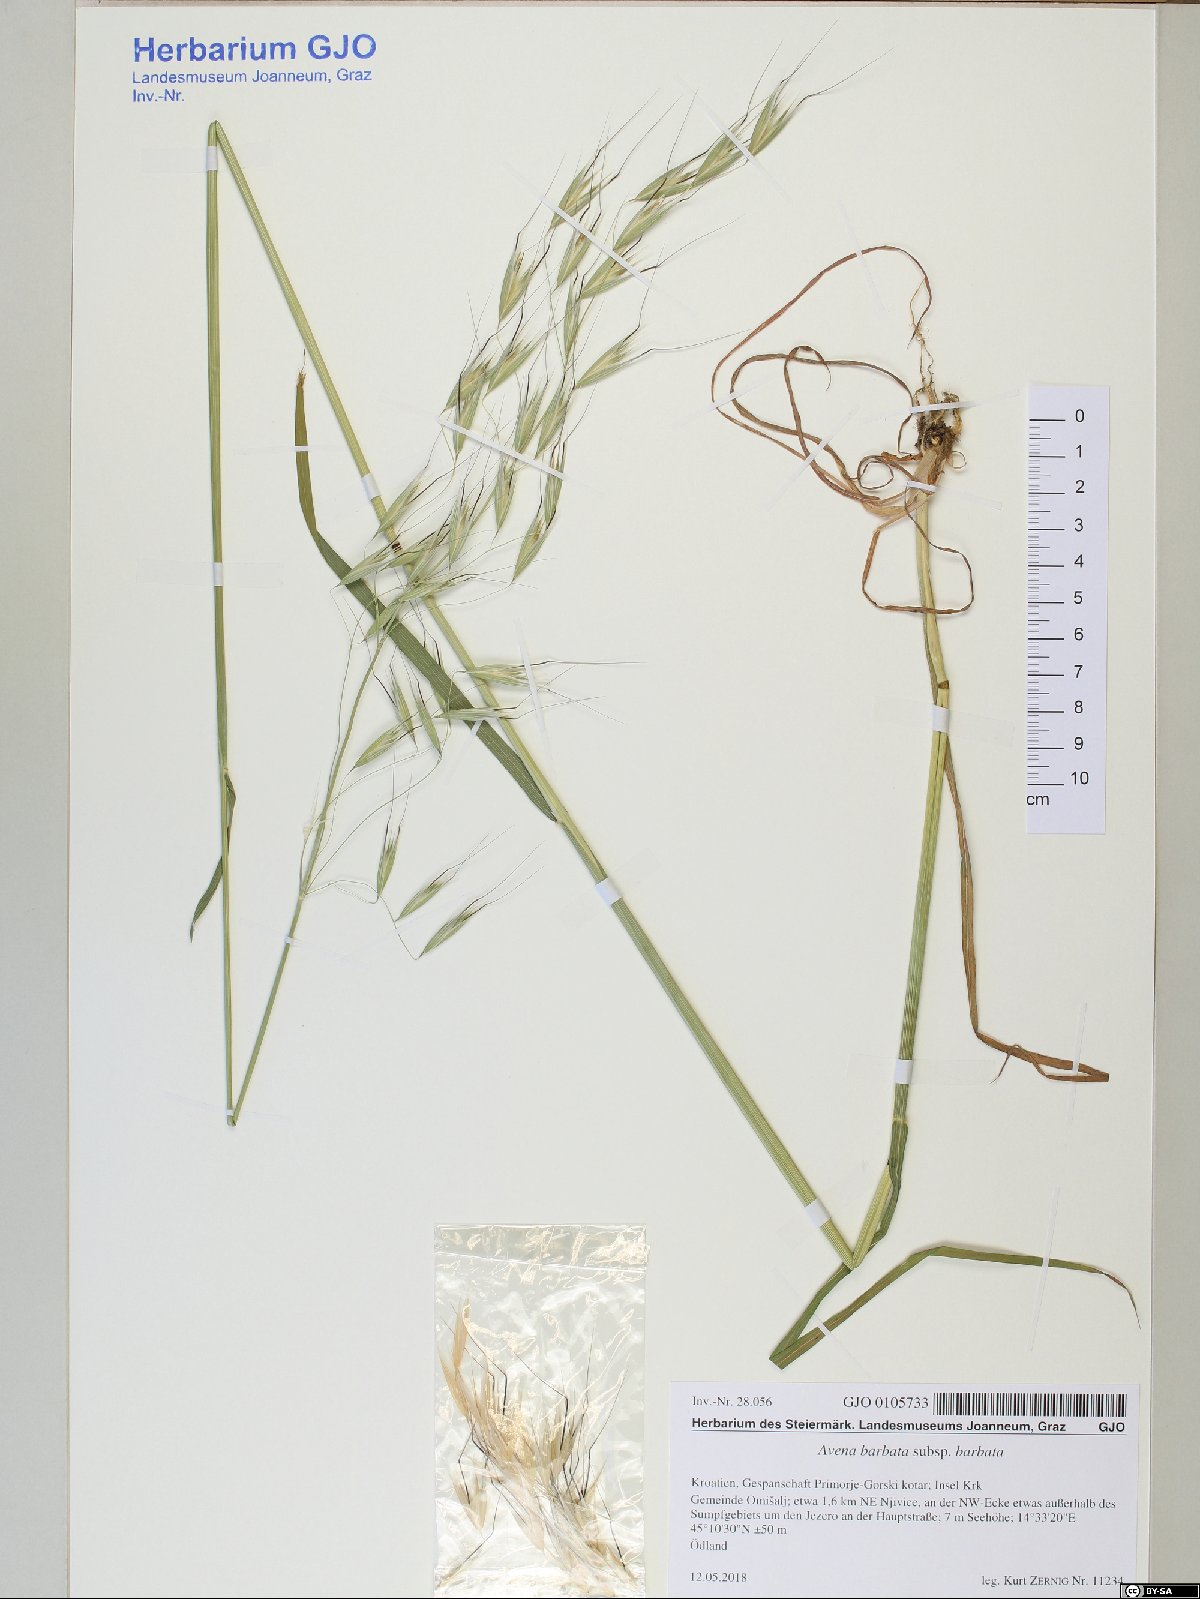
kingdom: Plantae
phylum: Tracheophyta
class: Liliopsida
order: Poales
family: Poaceae
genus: Avena
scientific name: Avena barbata
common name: Slender oat
